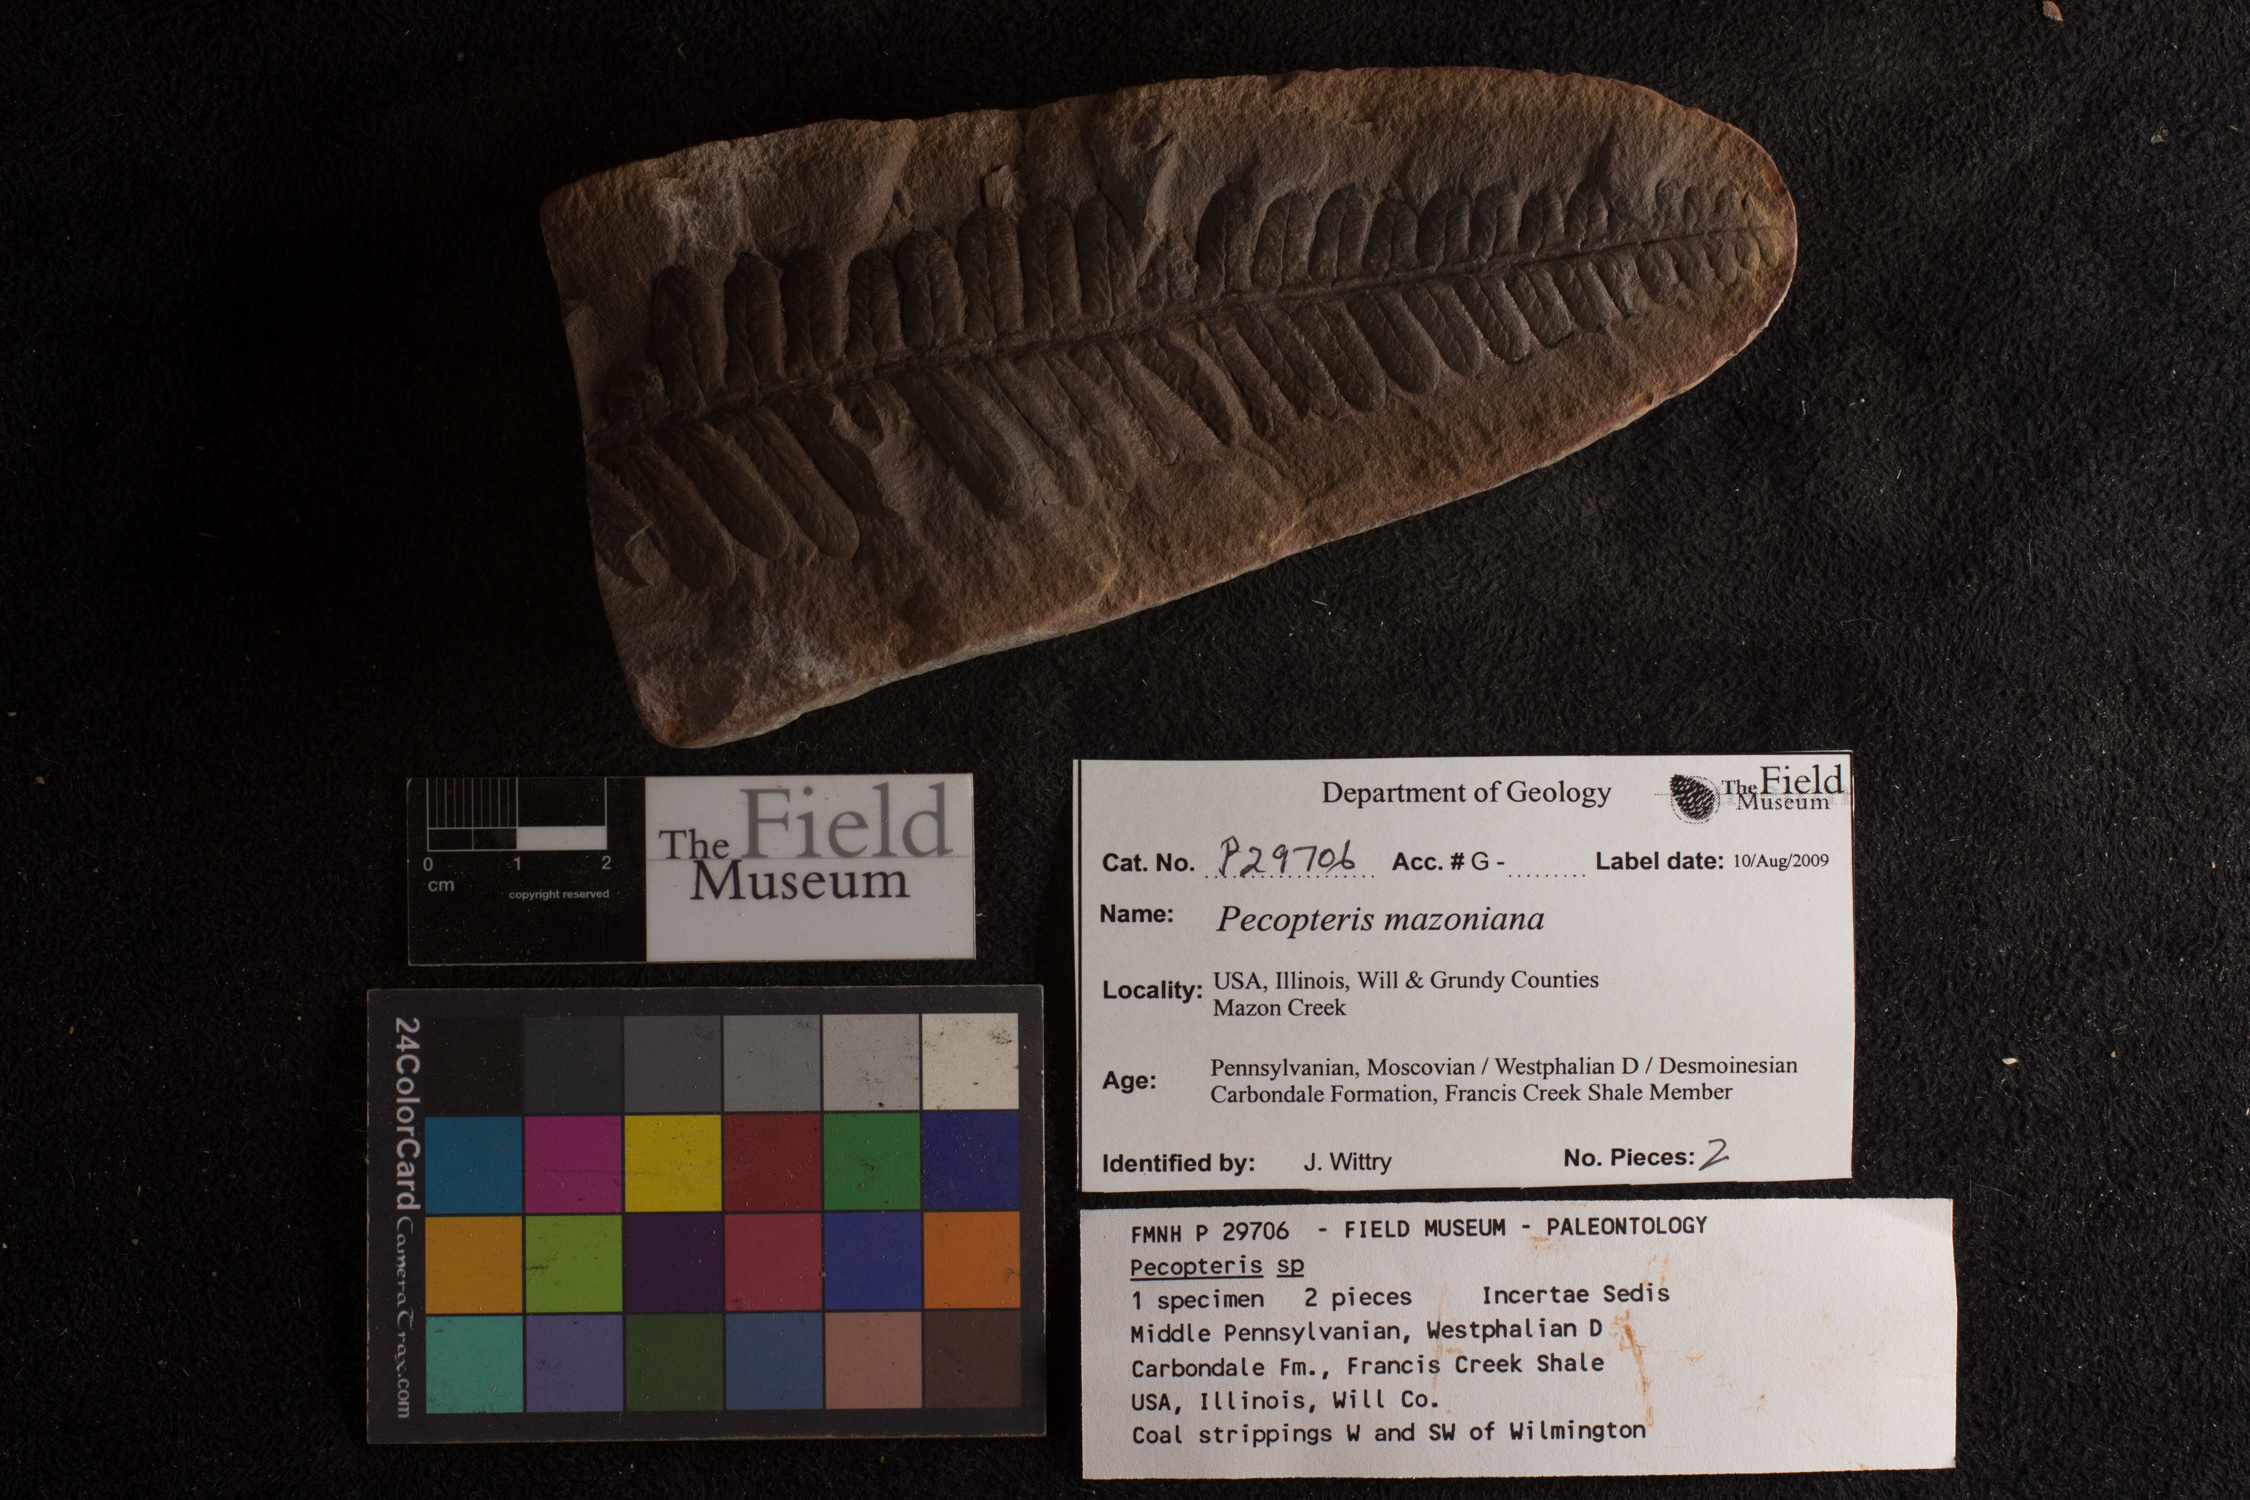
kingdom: Plantae
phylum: Tracheophyta
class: Polypodiopsida
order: Marattiales
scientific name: Marattiales
